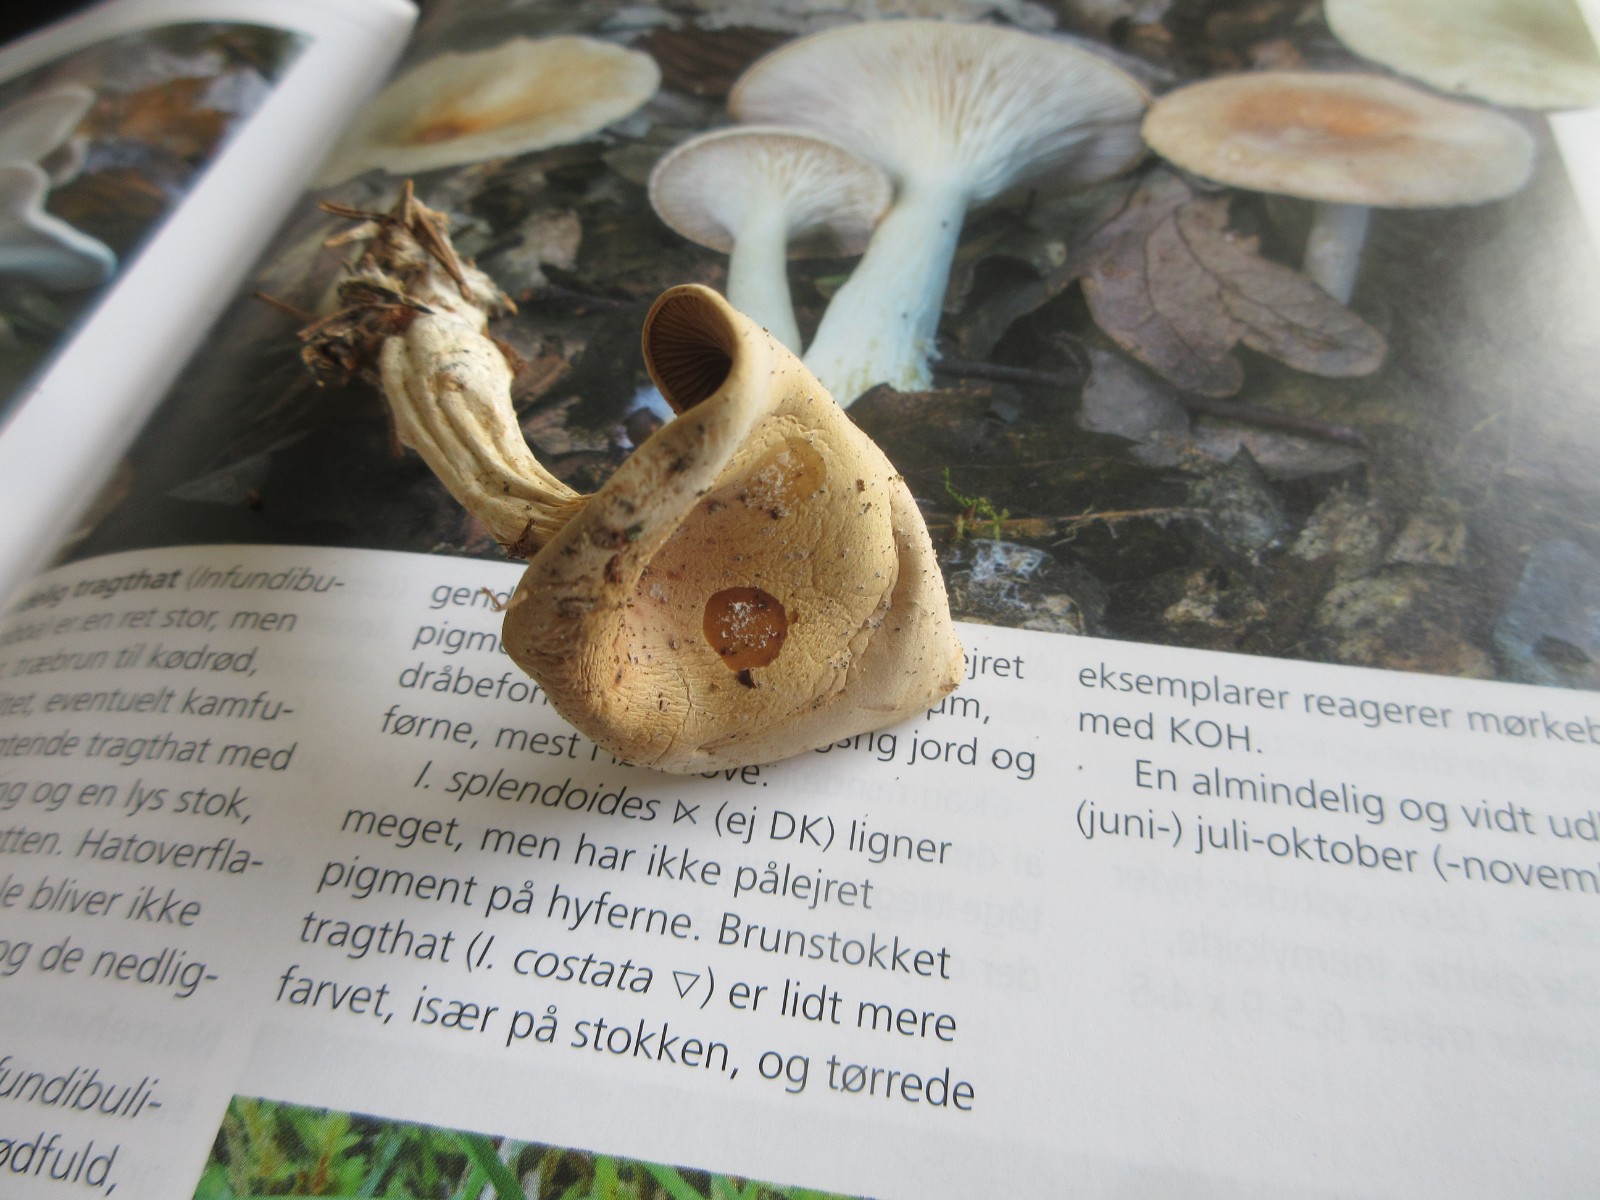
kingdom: Fungi
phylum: Basidiomycota
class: Agaricomycetes
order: Agaricales
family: Tricholomataceae
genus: Infundibulicybe
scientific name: Infundibulicybe
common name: tragthat
